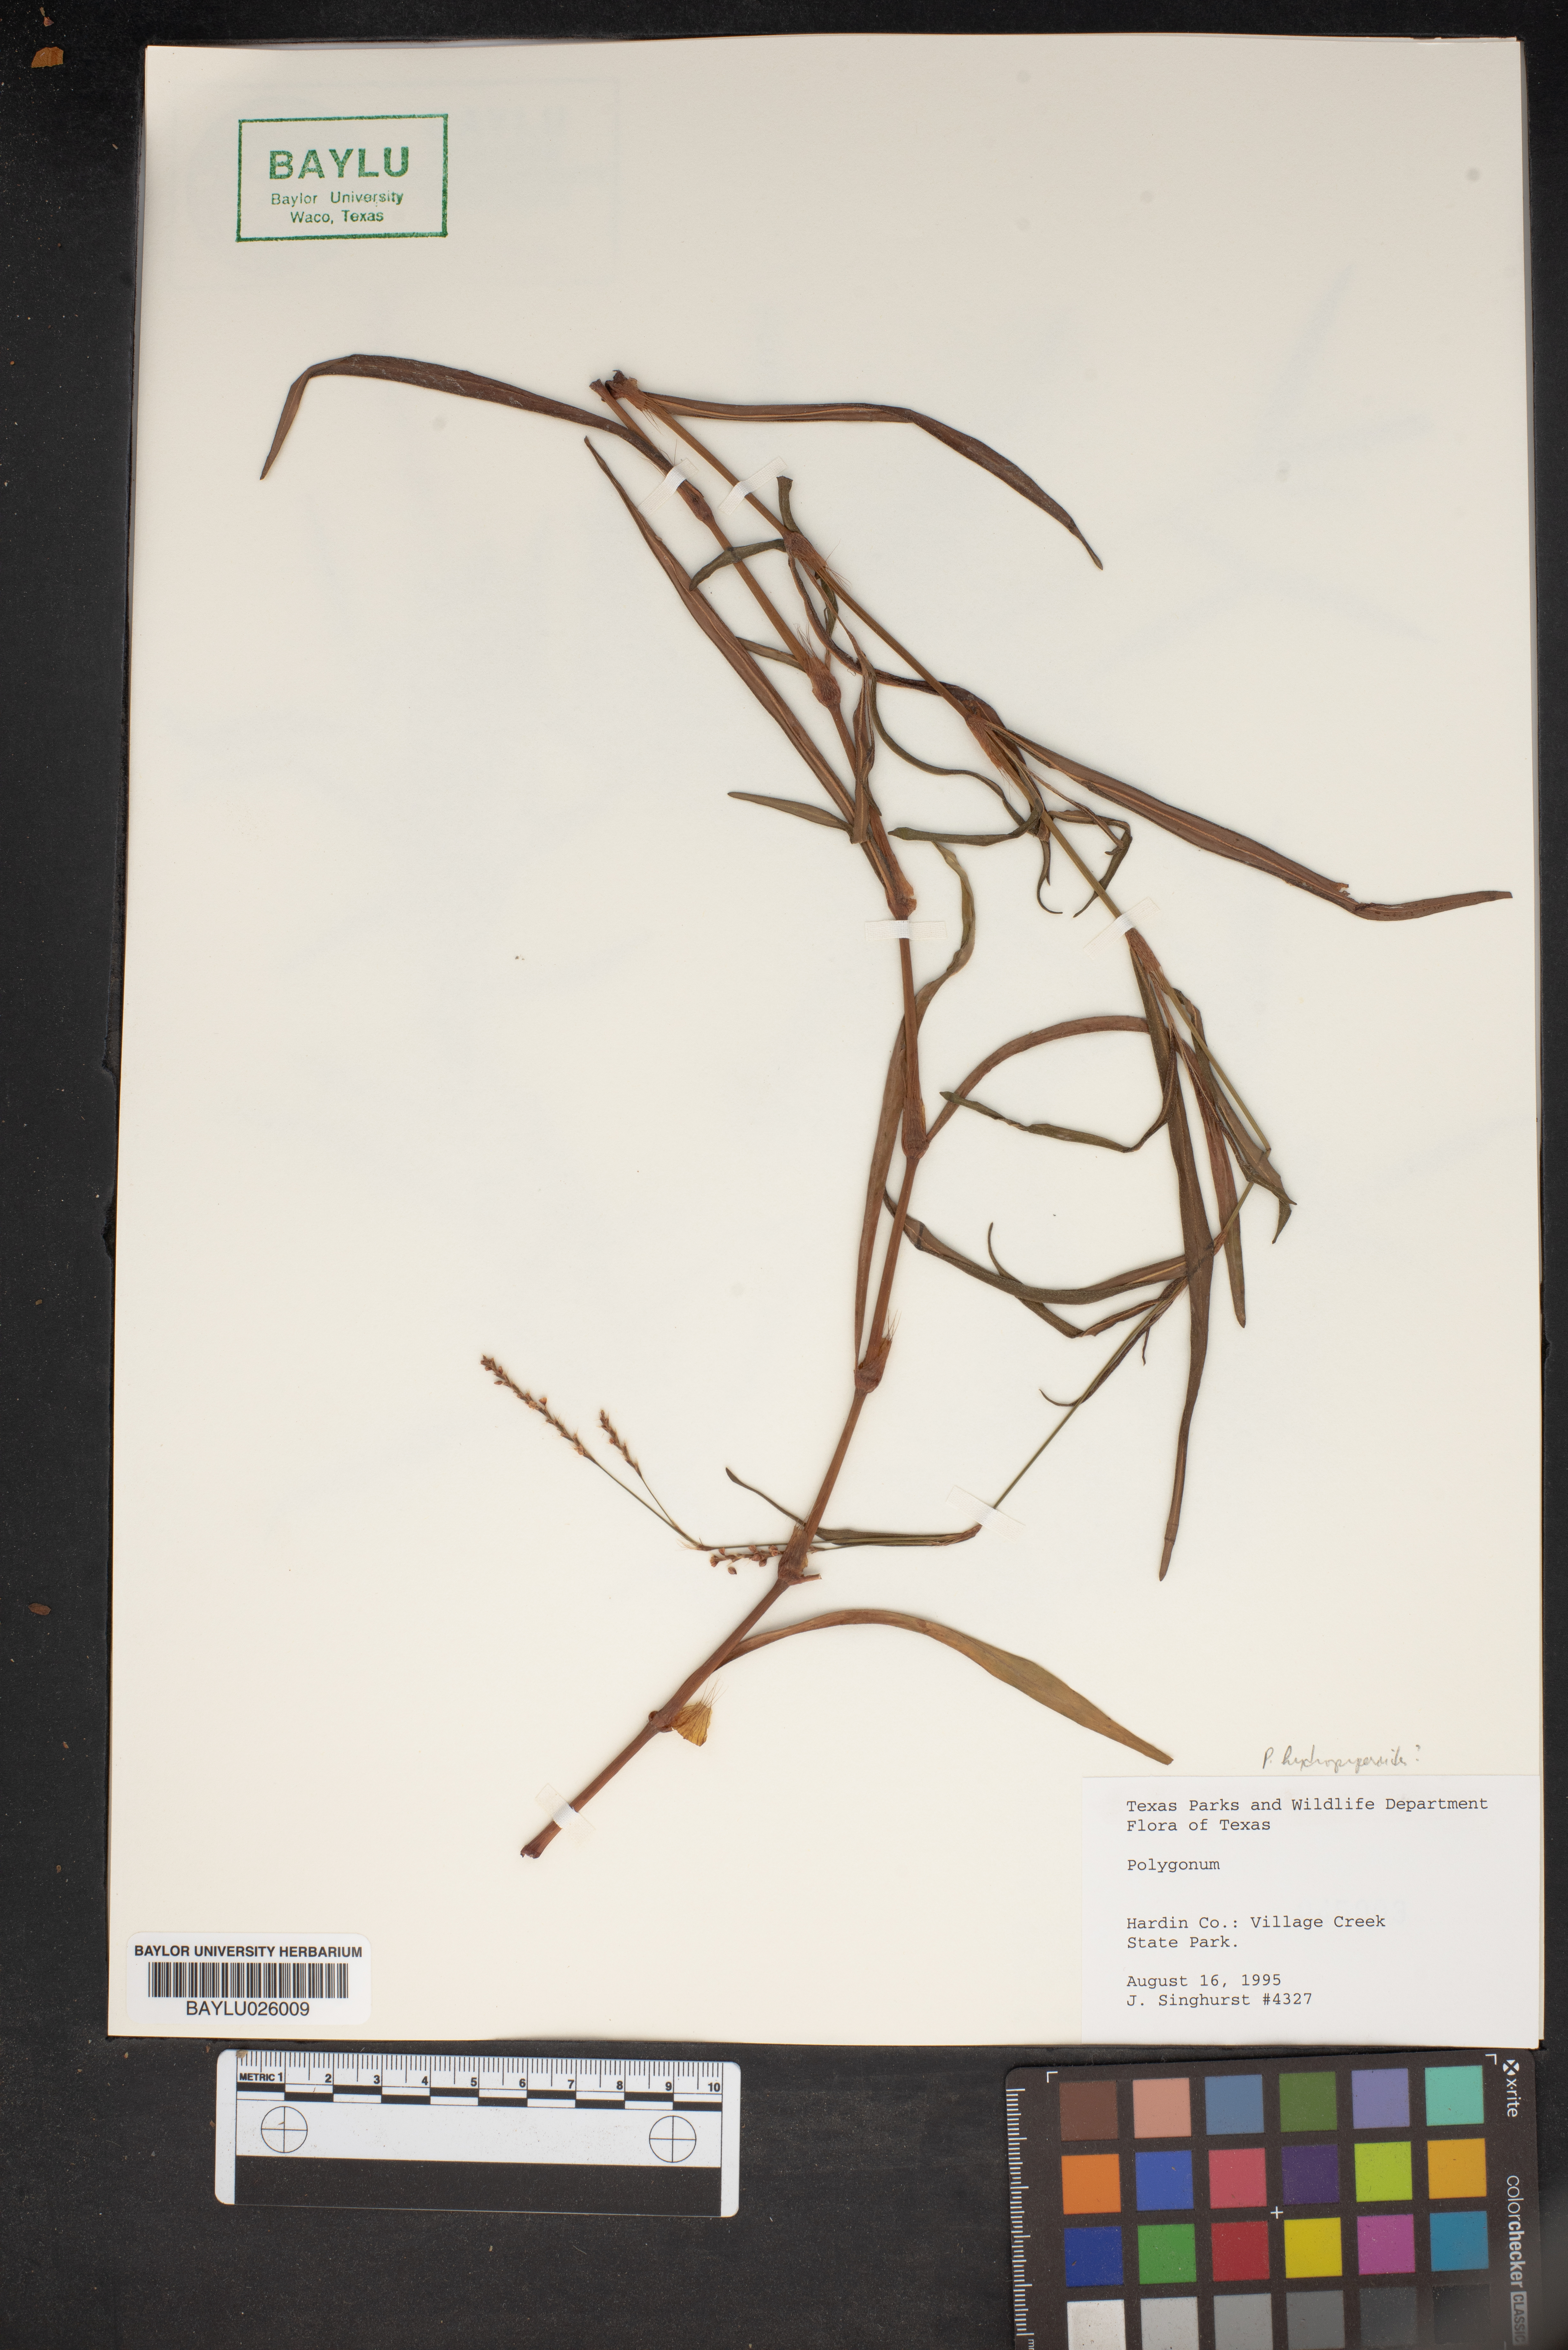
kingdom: Plantae
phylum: Tracheophyta
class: Magnoliopsida
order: Caryophyllales
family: Polygonaceae
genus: Polygonum
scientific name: Polygonum
